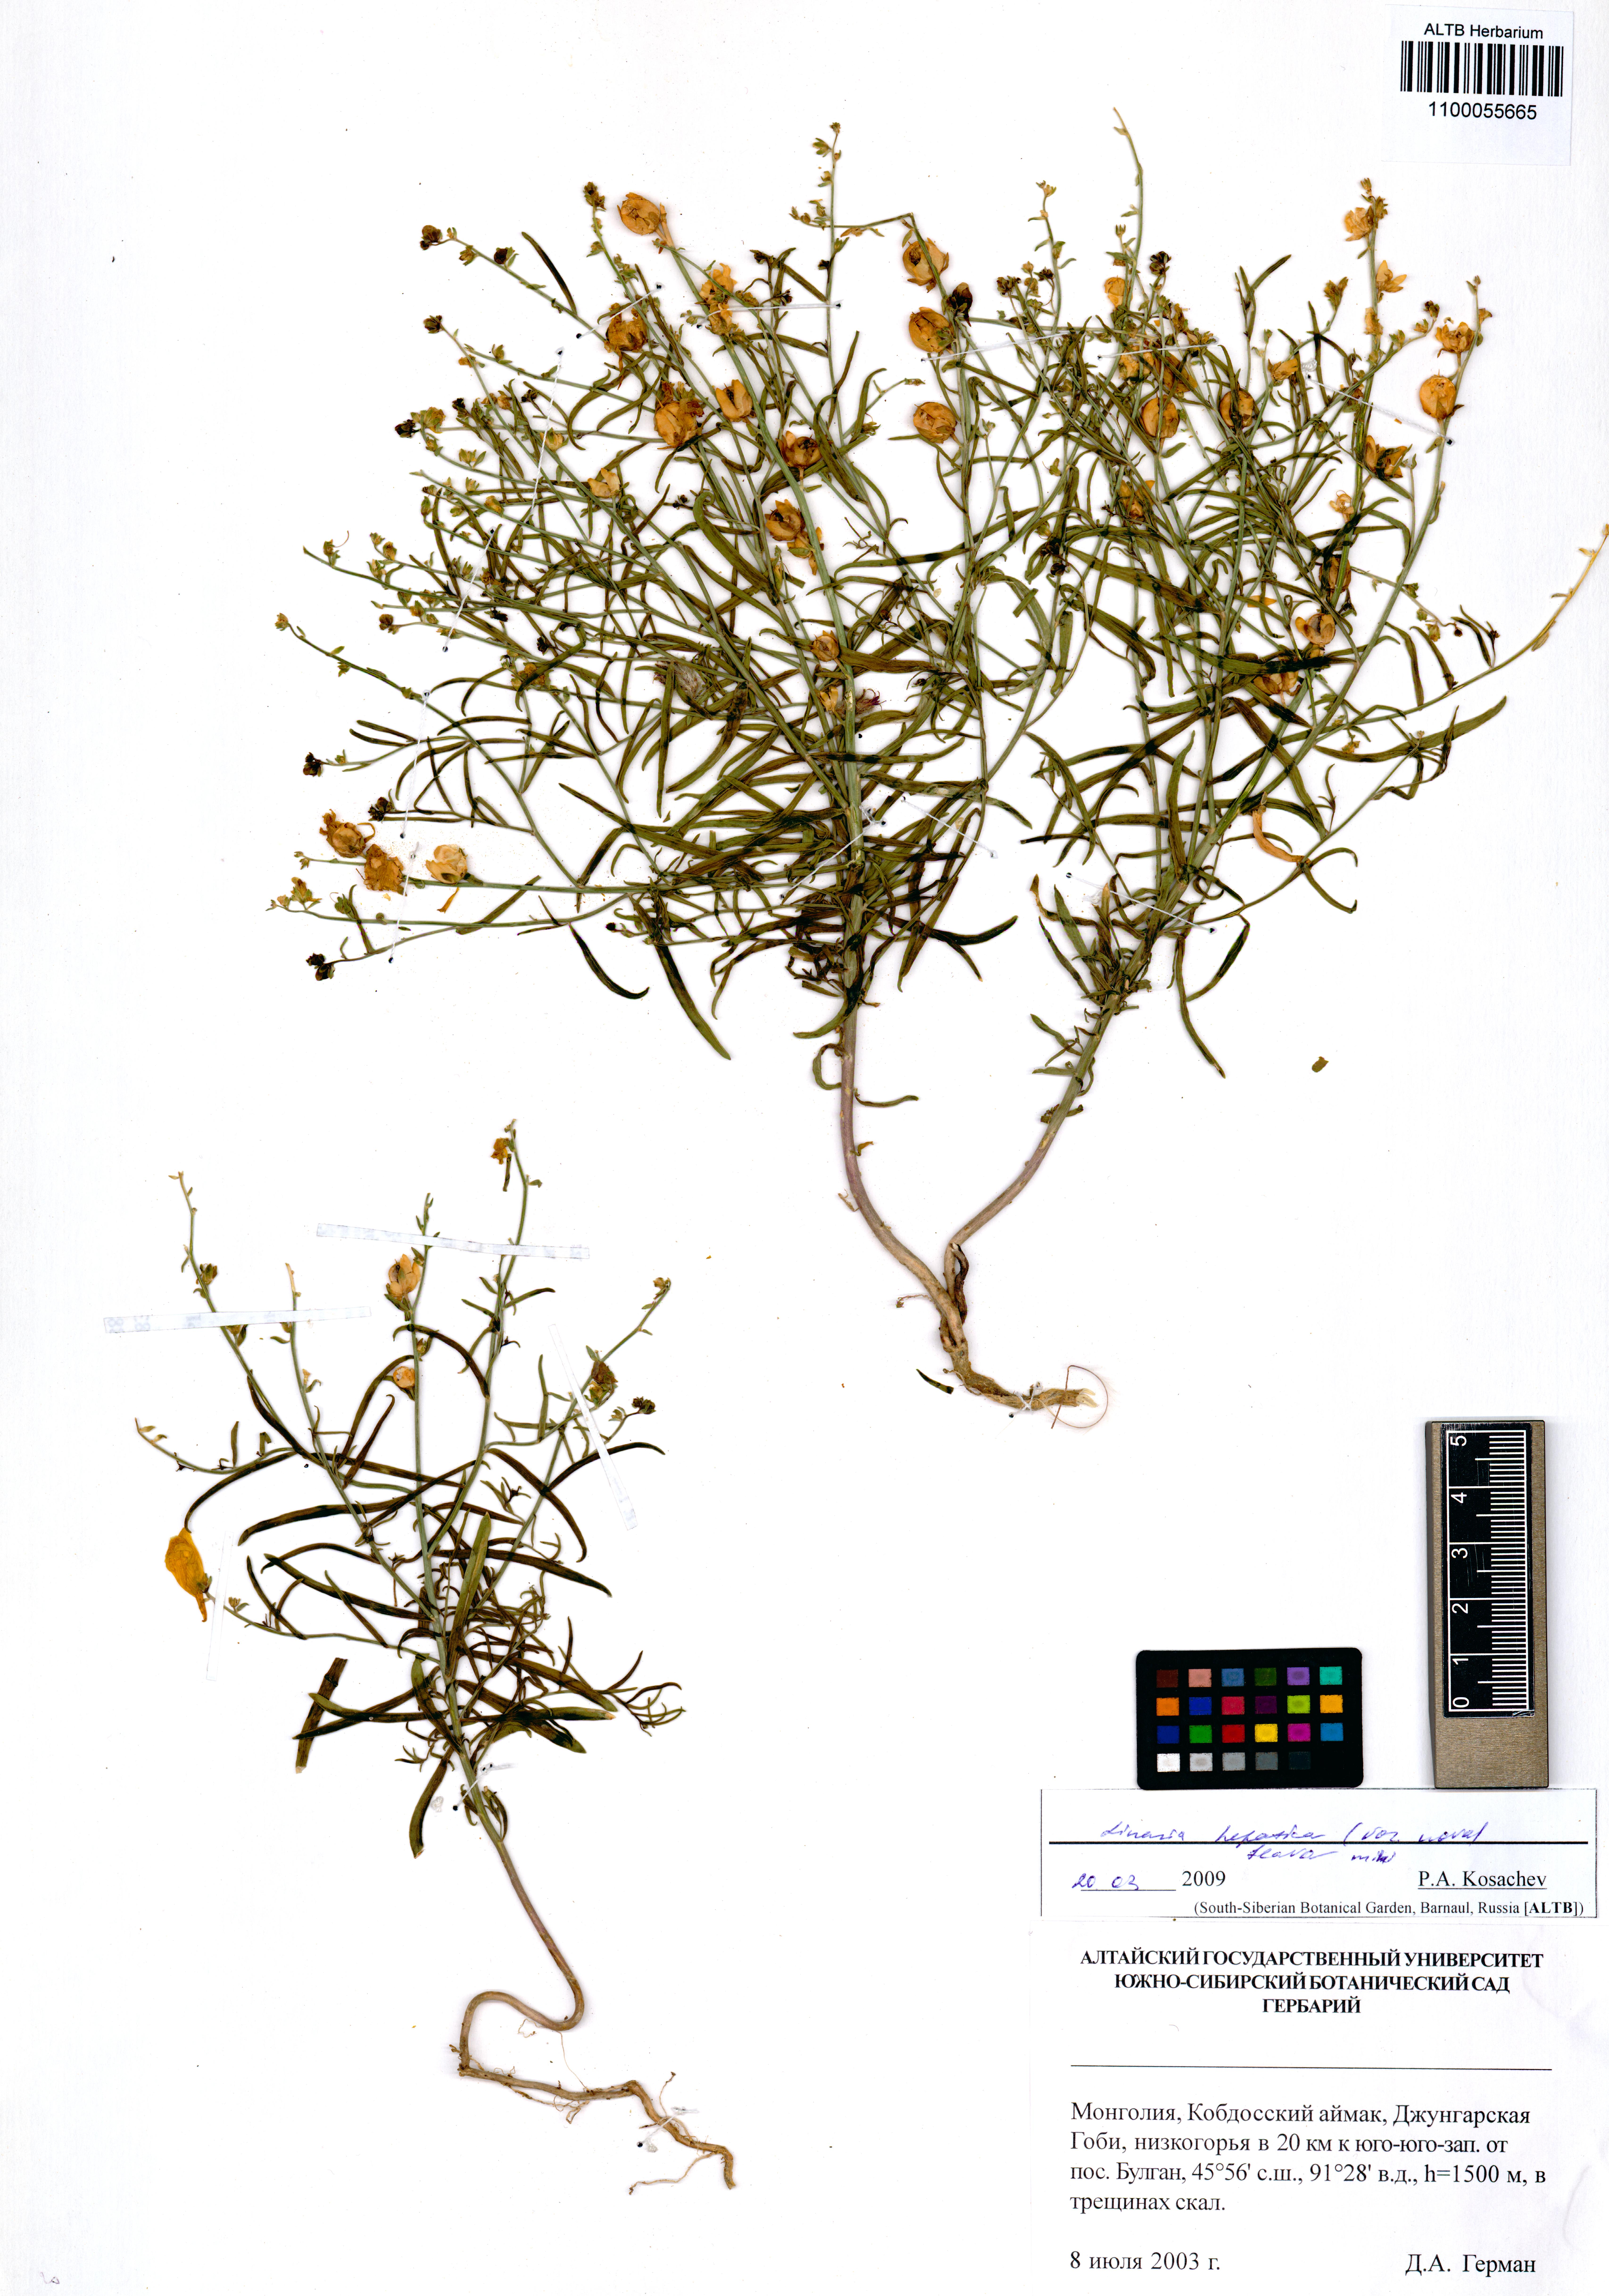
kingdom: Plantae
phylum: Tracheophyta
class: Magnoliopsida
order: Lamiales
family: Plantaginaceae
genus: Linaria
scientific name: Linaria hepatica
